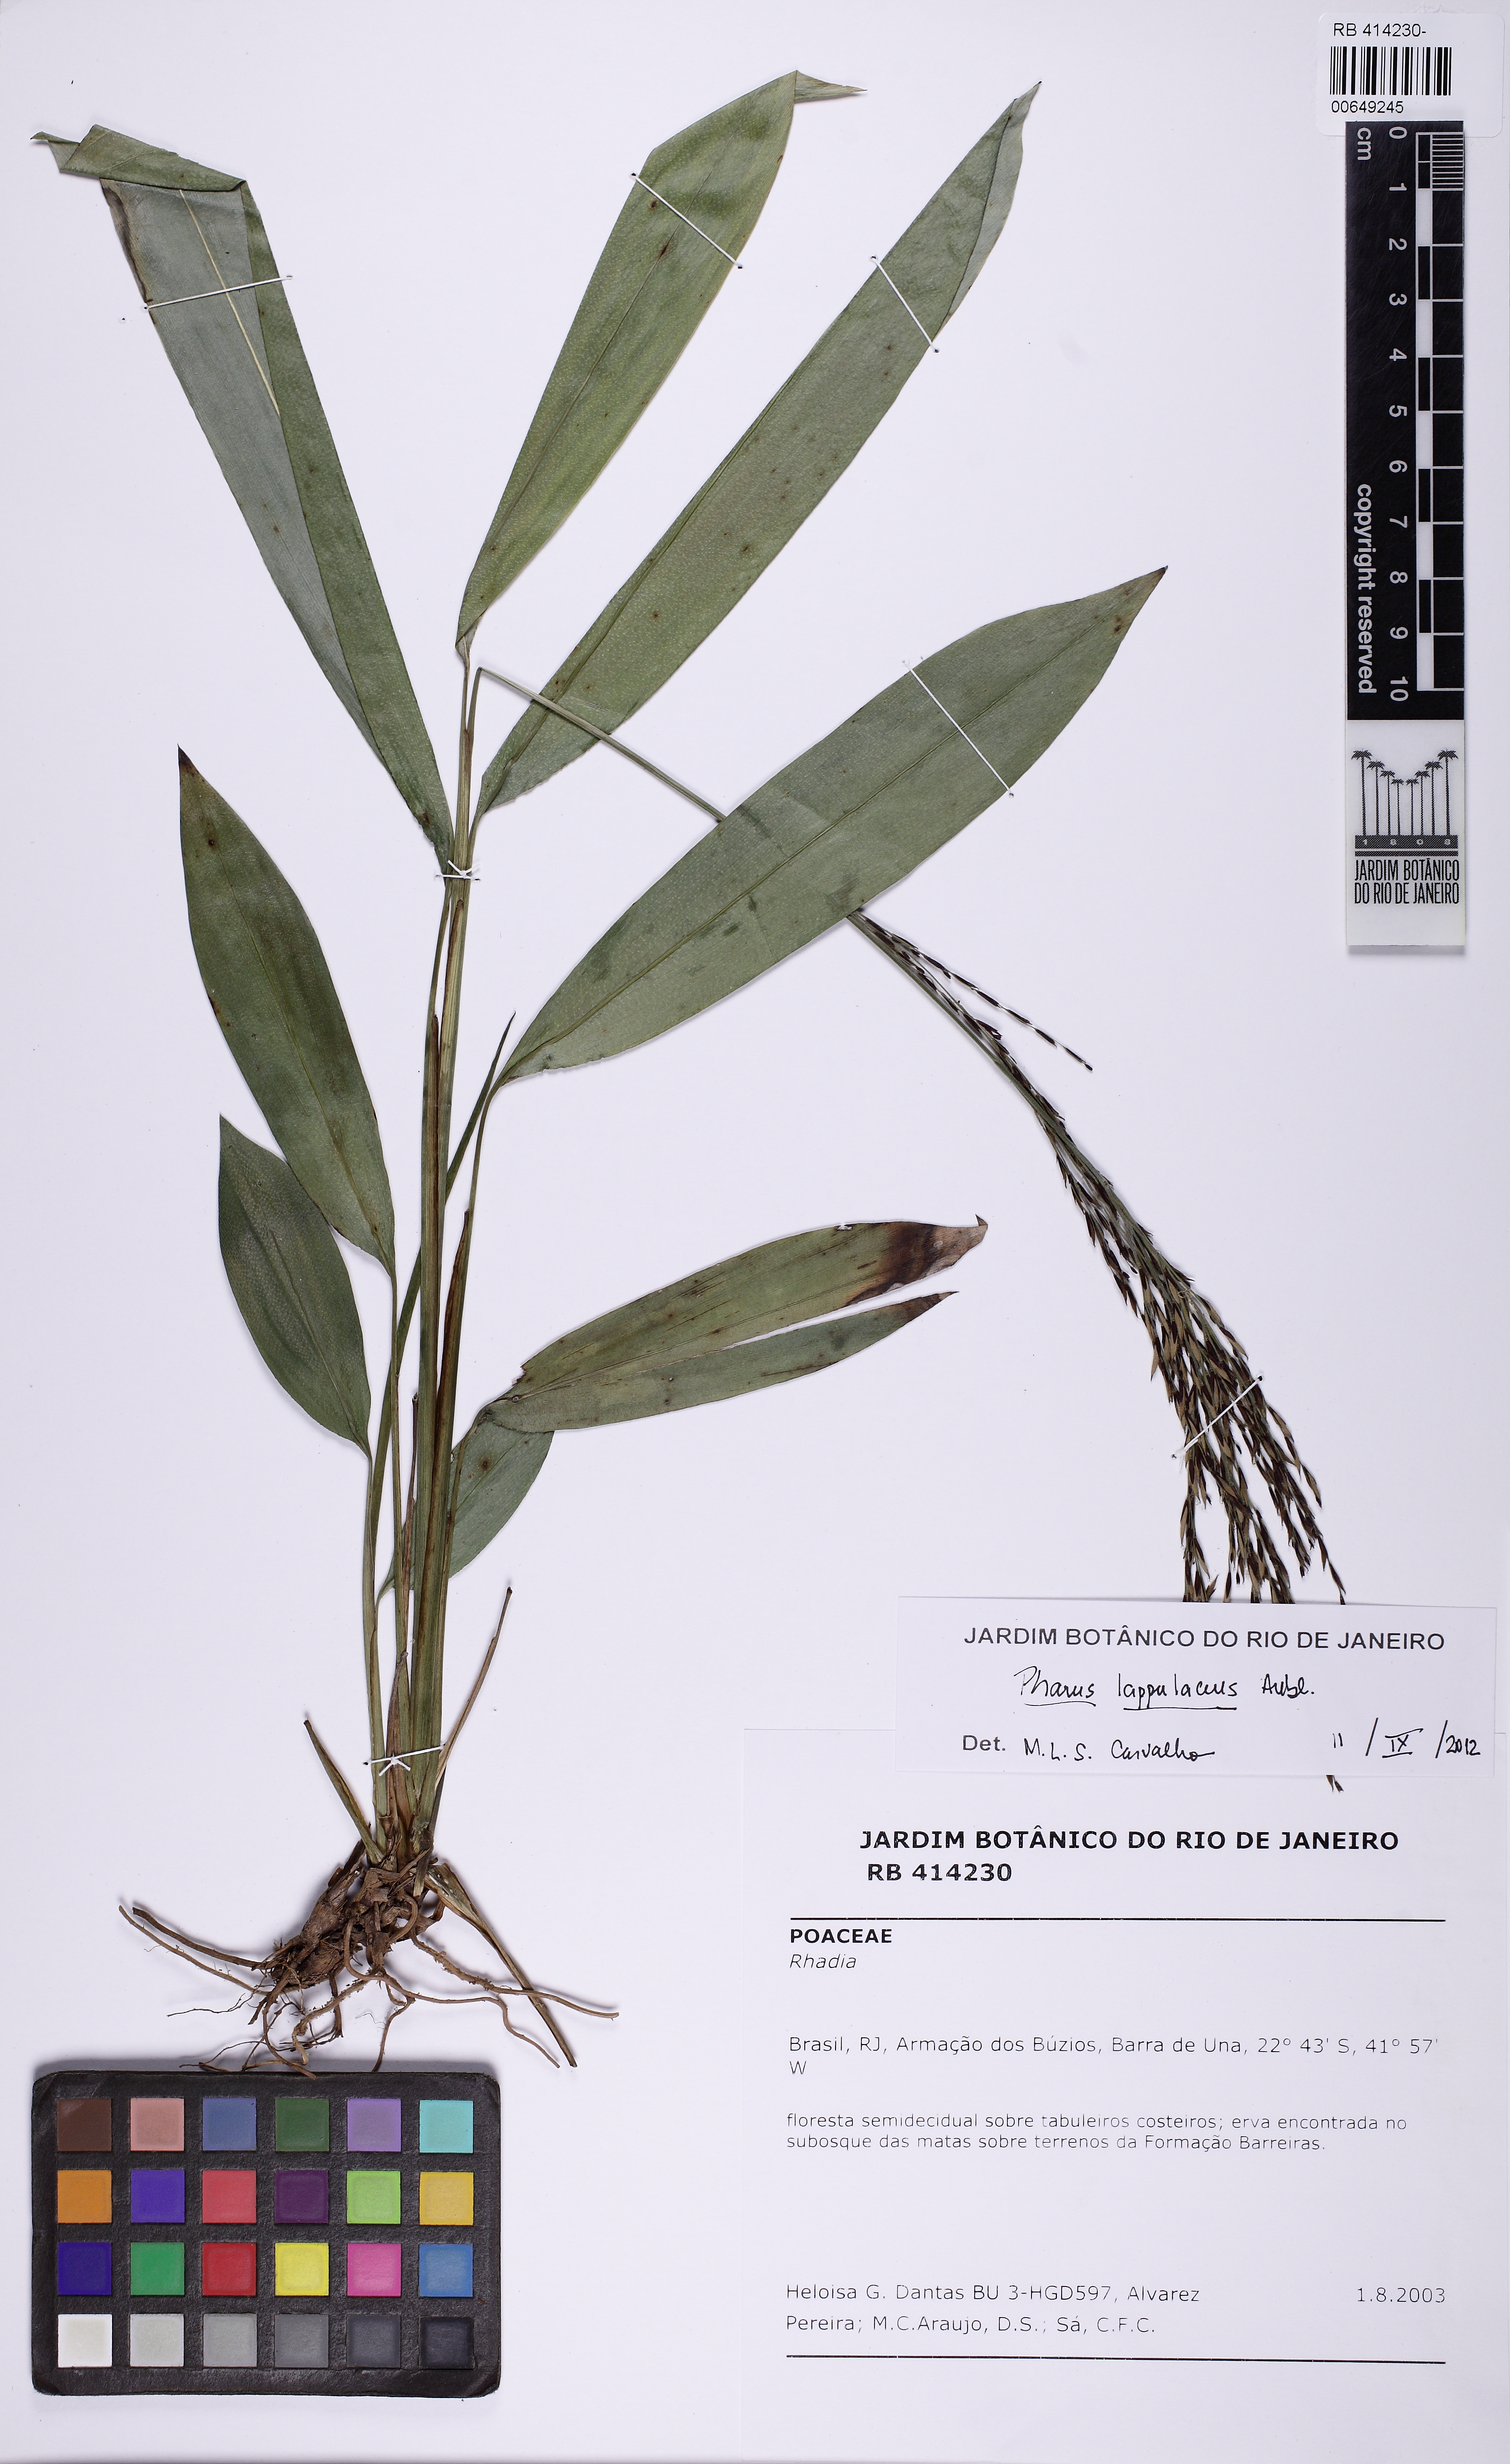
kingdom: Plantae
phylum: Tracheophyta
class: Liliopsida
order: Poales
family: Poaceae
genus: Pharus
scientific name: Pharus lappulaceus
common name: Creeping leafstalk grass
